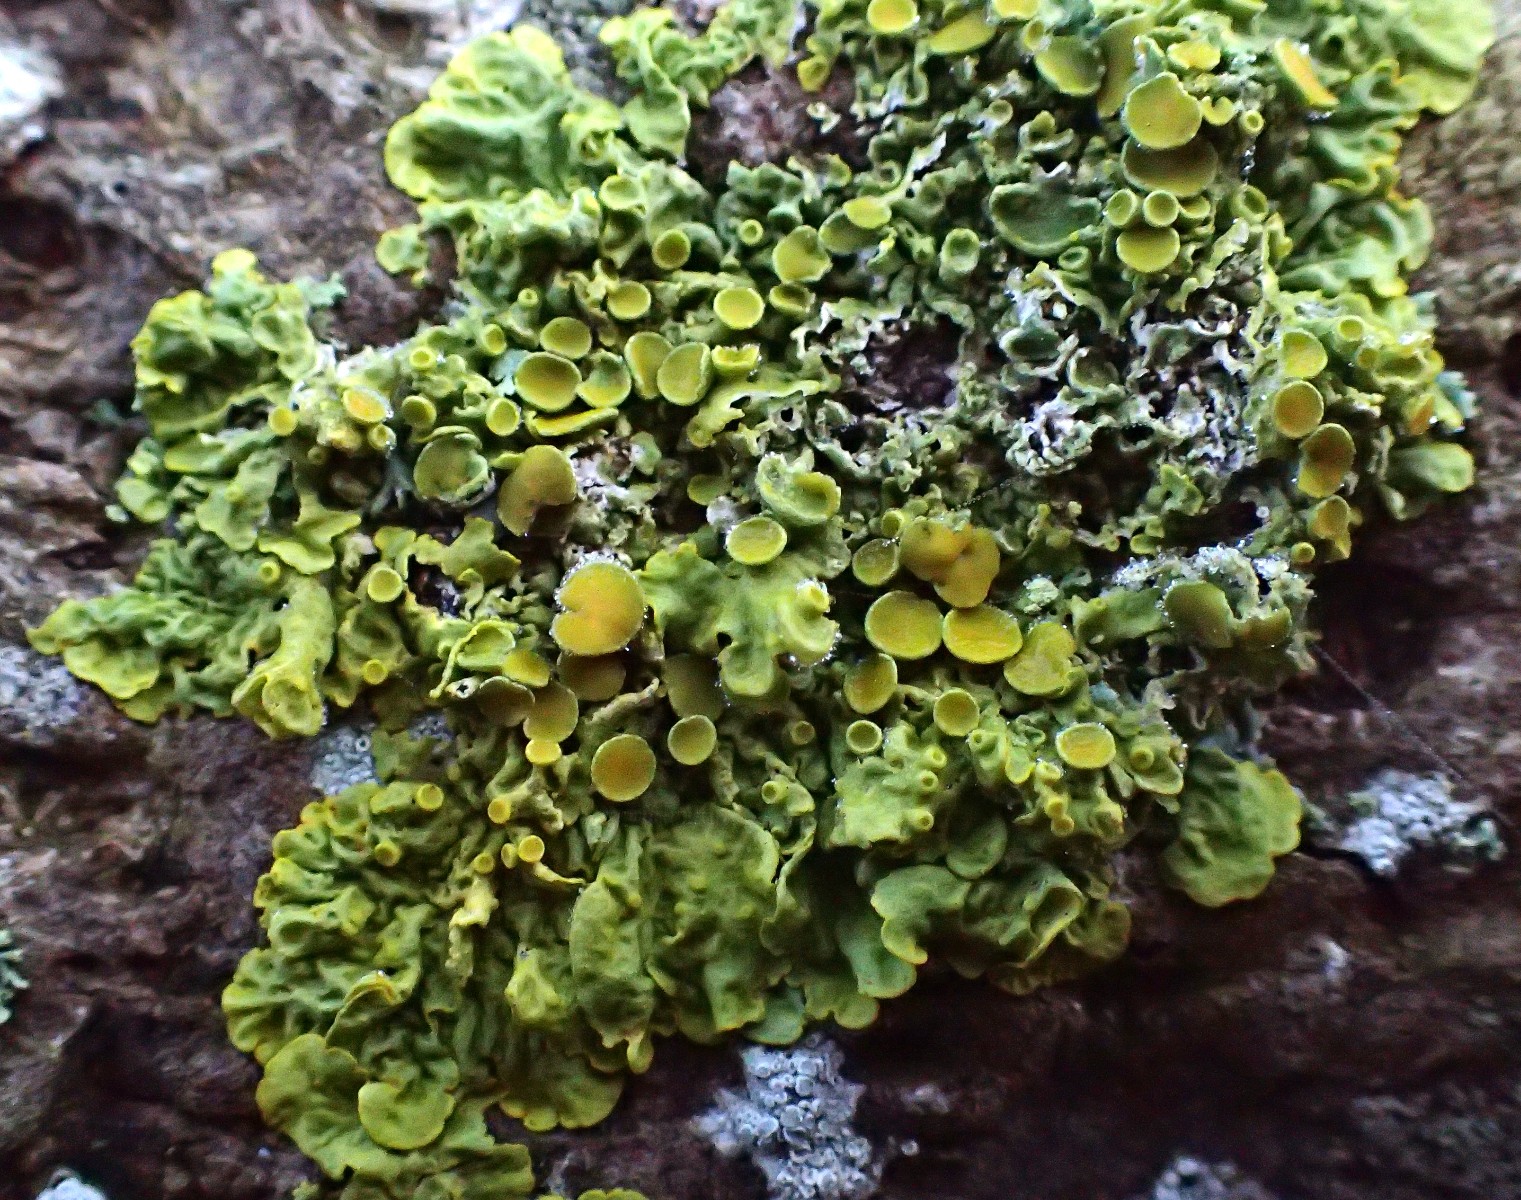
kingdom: Fungi
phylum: Ascomycota
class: Lecanoromycetes
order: Teloschistales
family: Teloschistaceae
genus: Xanthoria
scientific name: Xanthoria parietina
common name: almindelig væggelav
